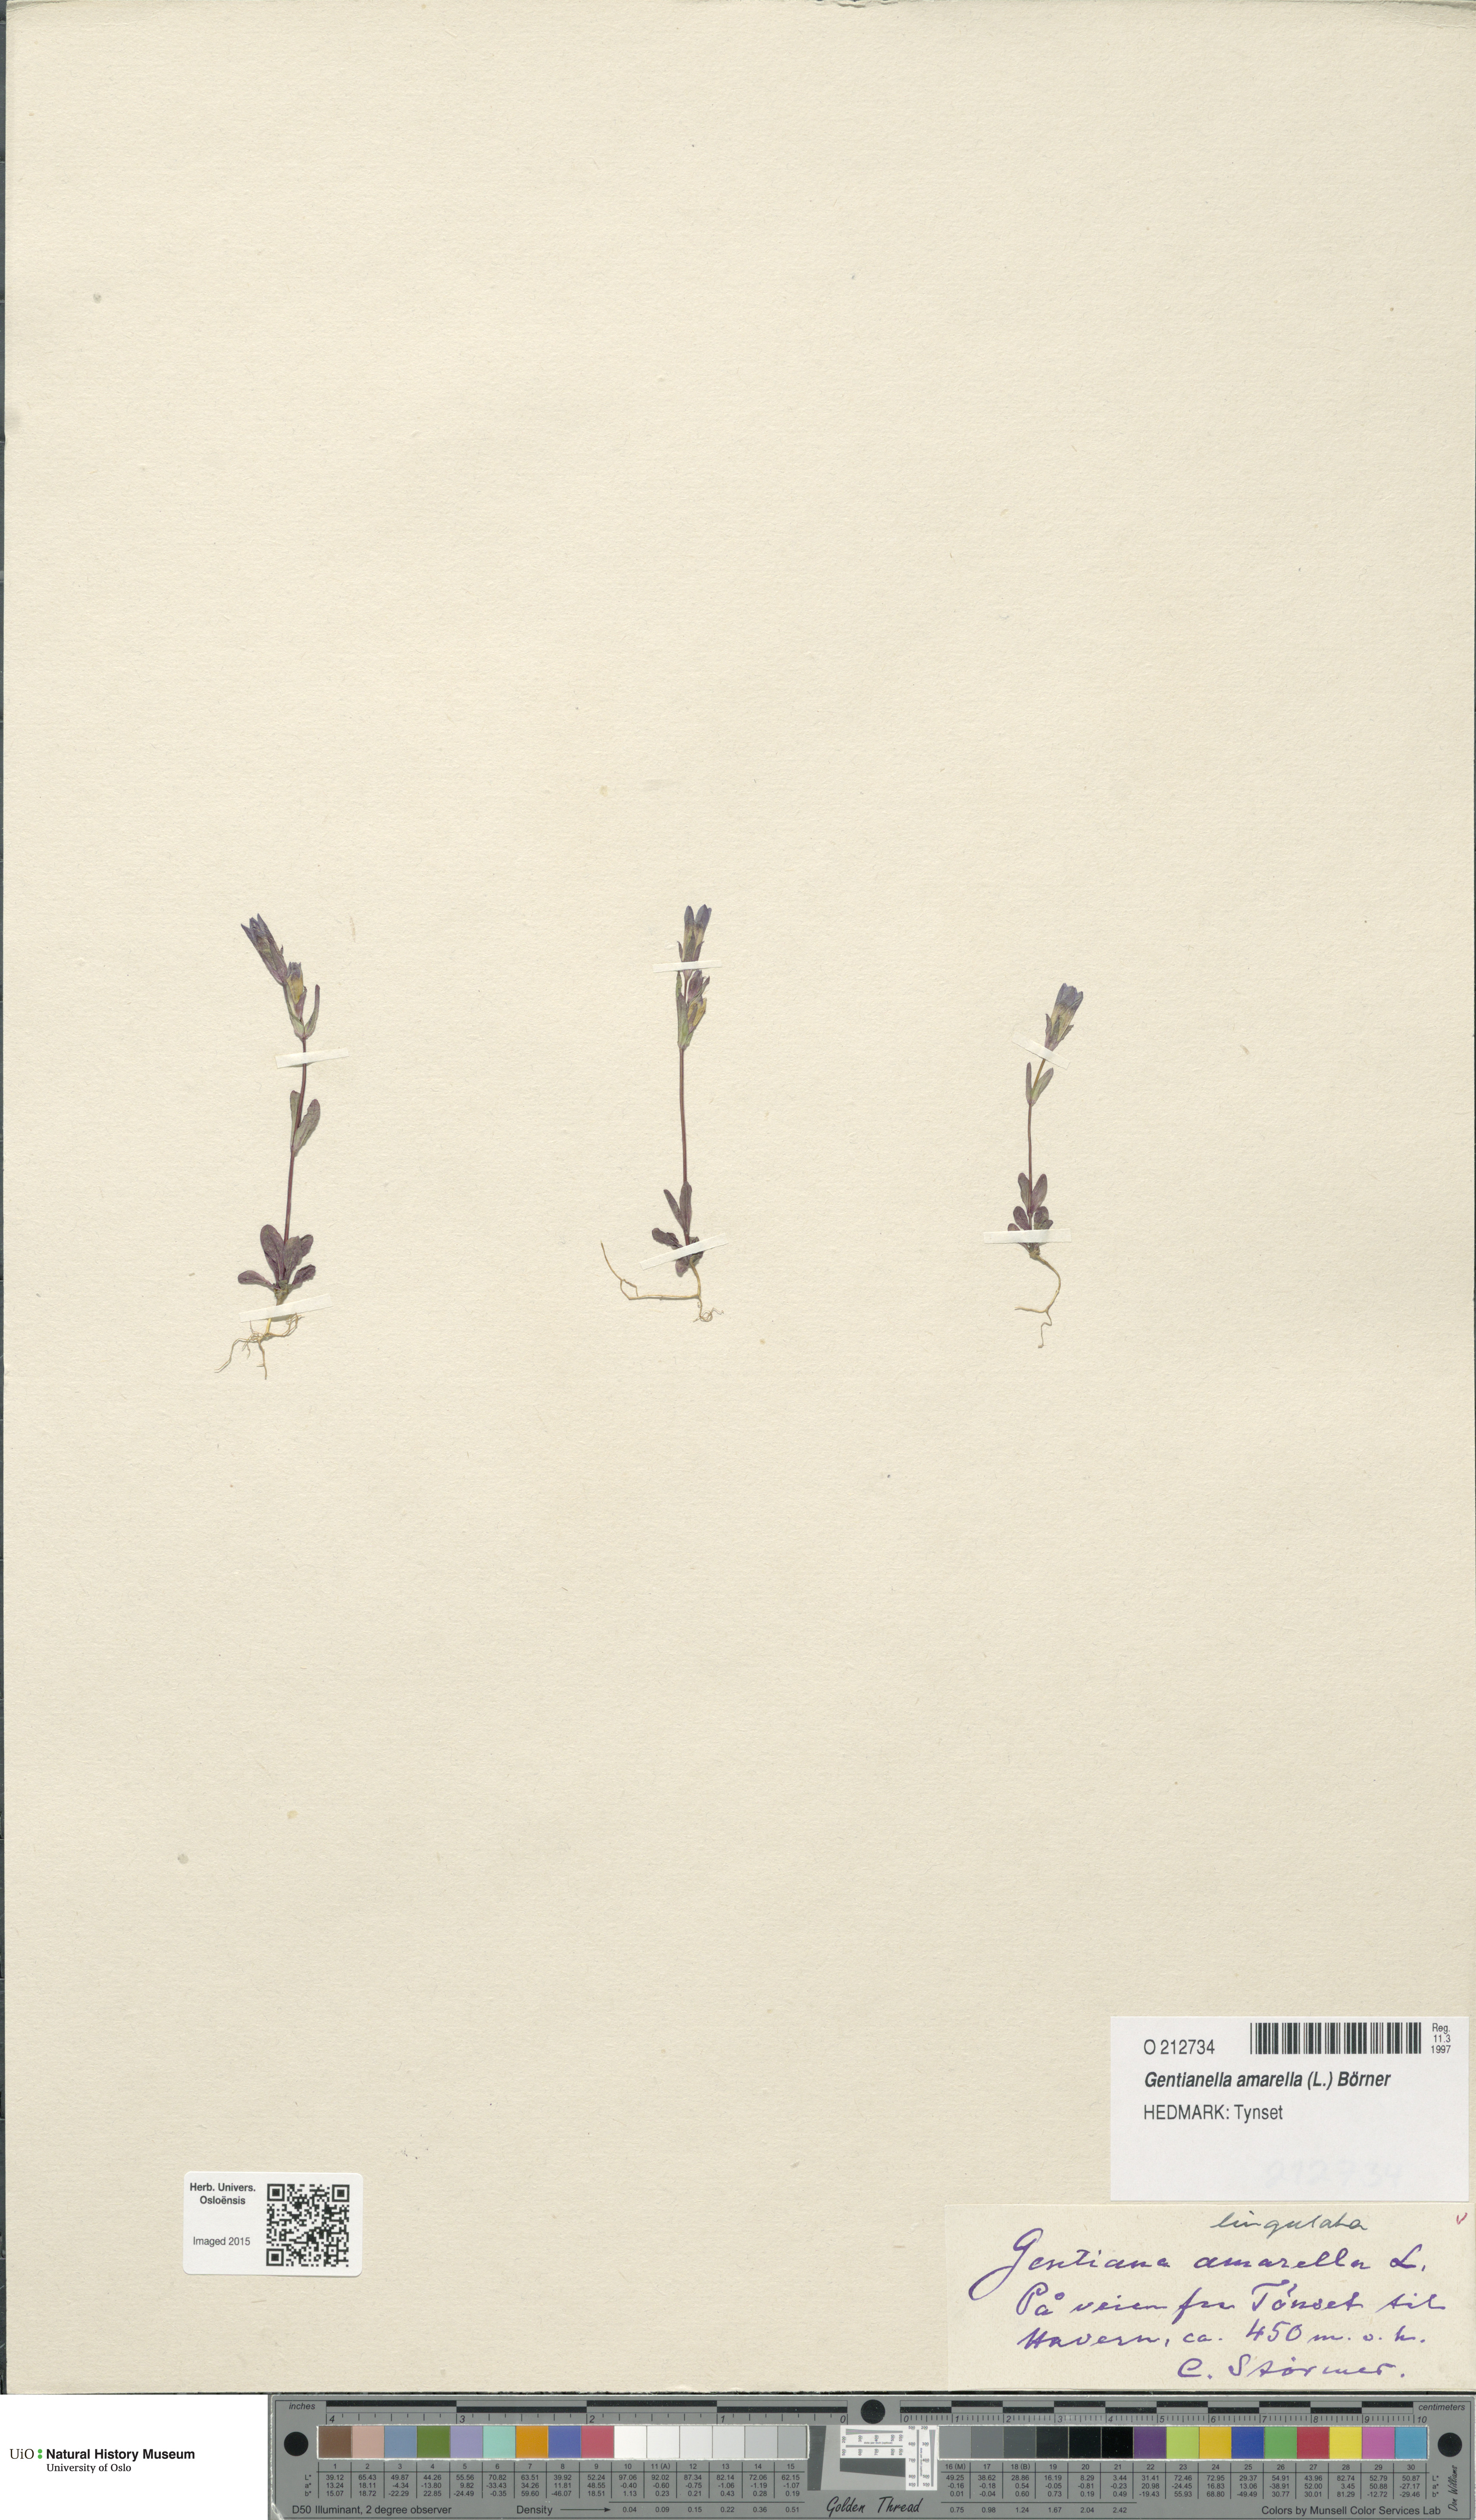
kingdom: Plantae
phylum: Tracheophyta
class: Magnoliopsida
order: Gentianales
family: Gentianaceae
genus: Gentianella
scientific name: Gentianella amarella
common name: Autumn gentian
